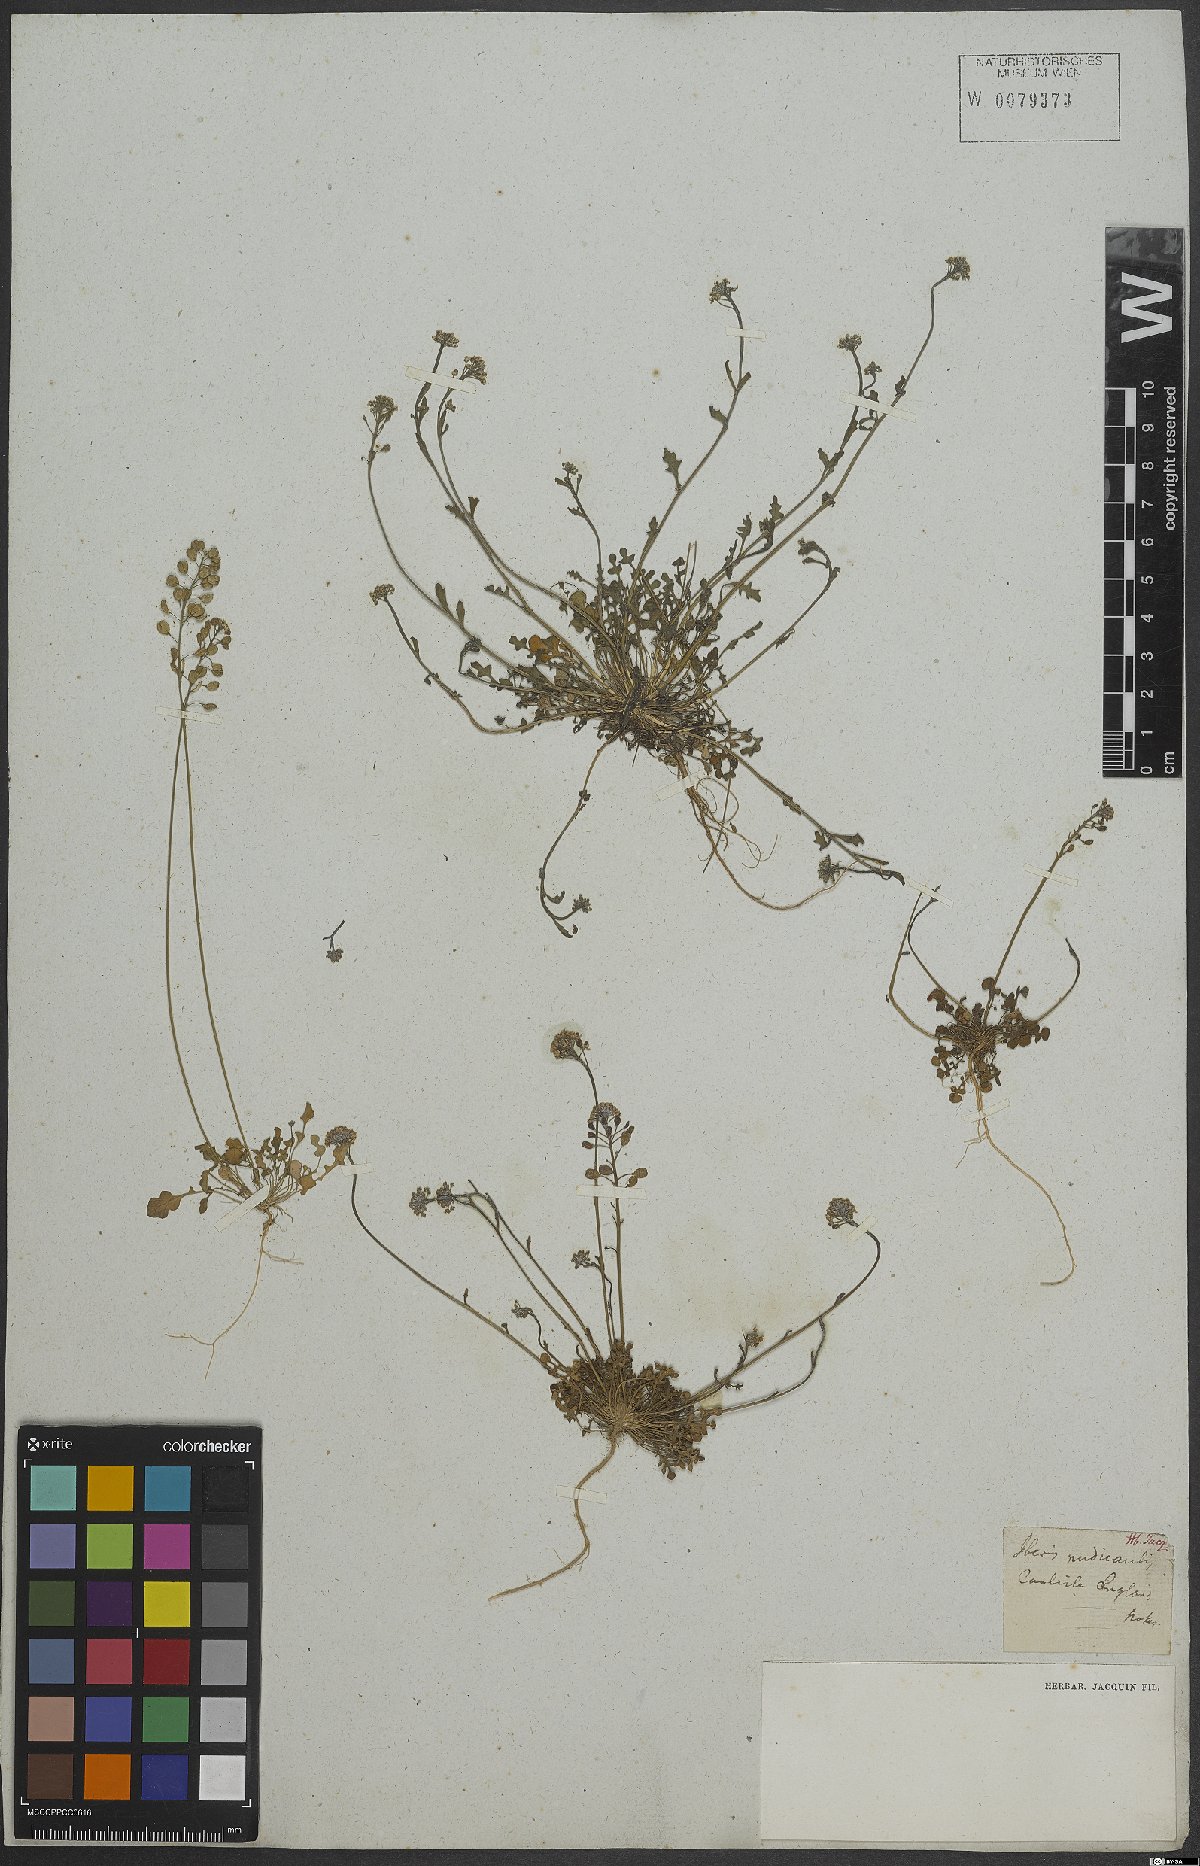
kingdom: Plantae
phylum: Tracheophyta
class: Magnoliopsida
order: Brassicales
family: Brassicaceae
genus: Teesdalia
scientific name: Teesdalia nudicaulis
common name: Shepherd's cress
